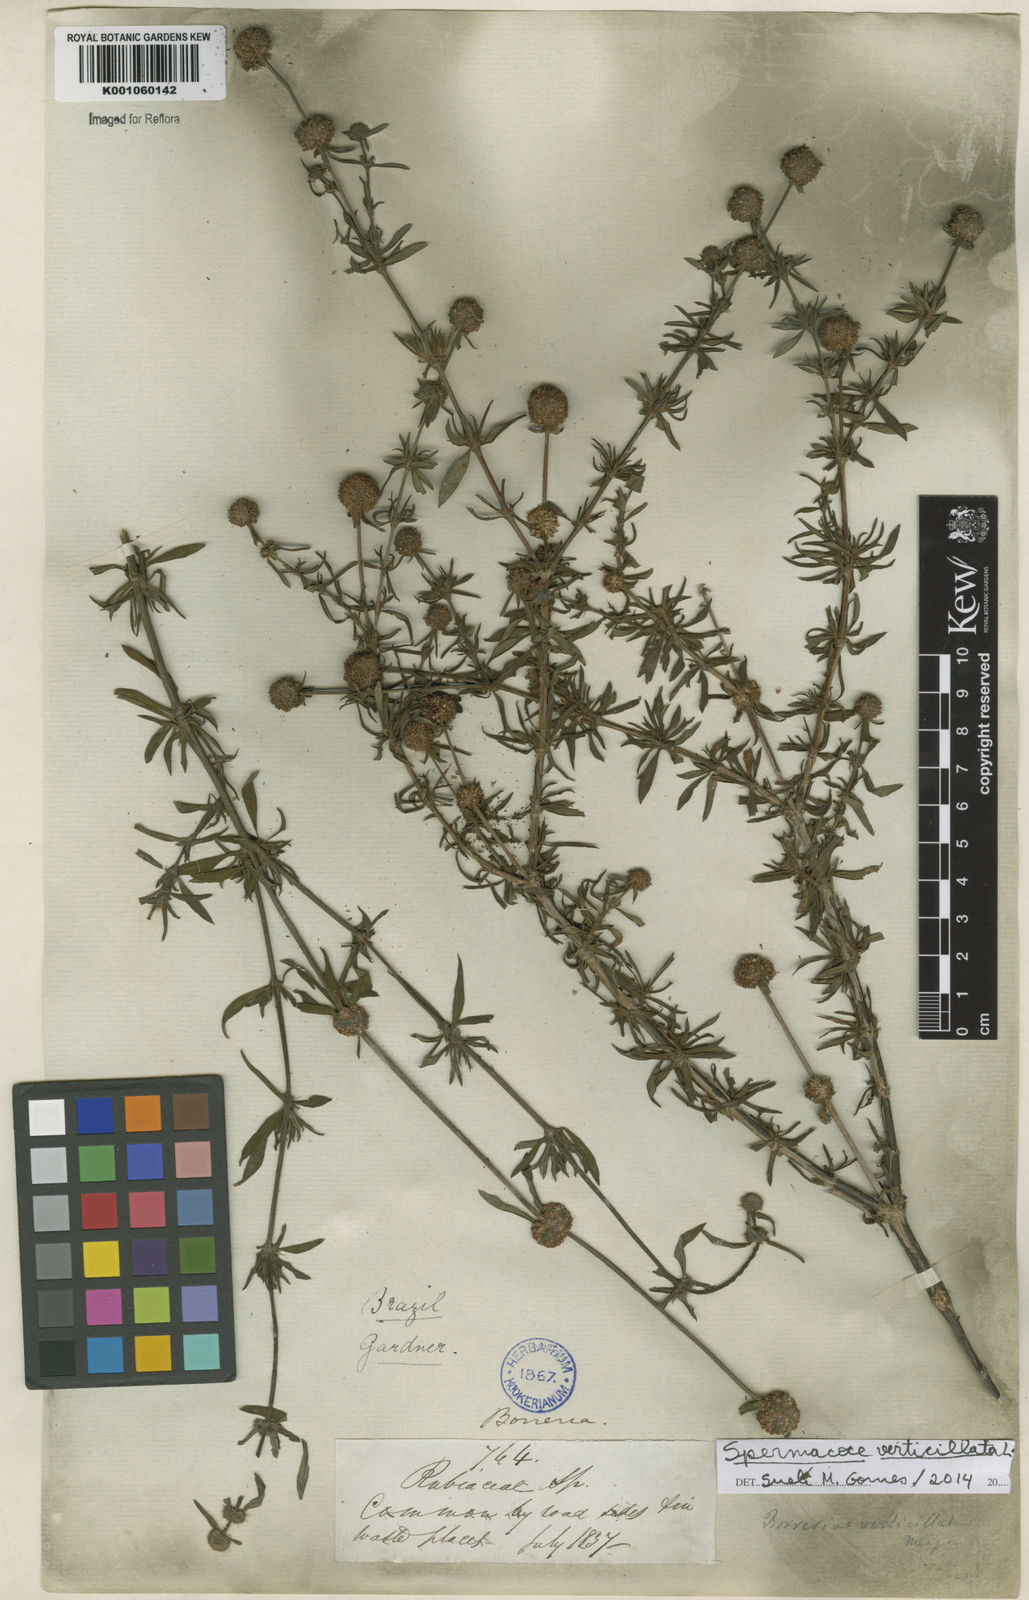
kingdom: Plantae
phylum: Tracheophyta
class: Magnoliopsida
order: Gentianales
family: Rubiaceae
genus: Spermacoce
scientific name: Spermacoce verticillata
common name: Shrubby false buttonweed
